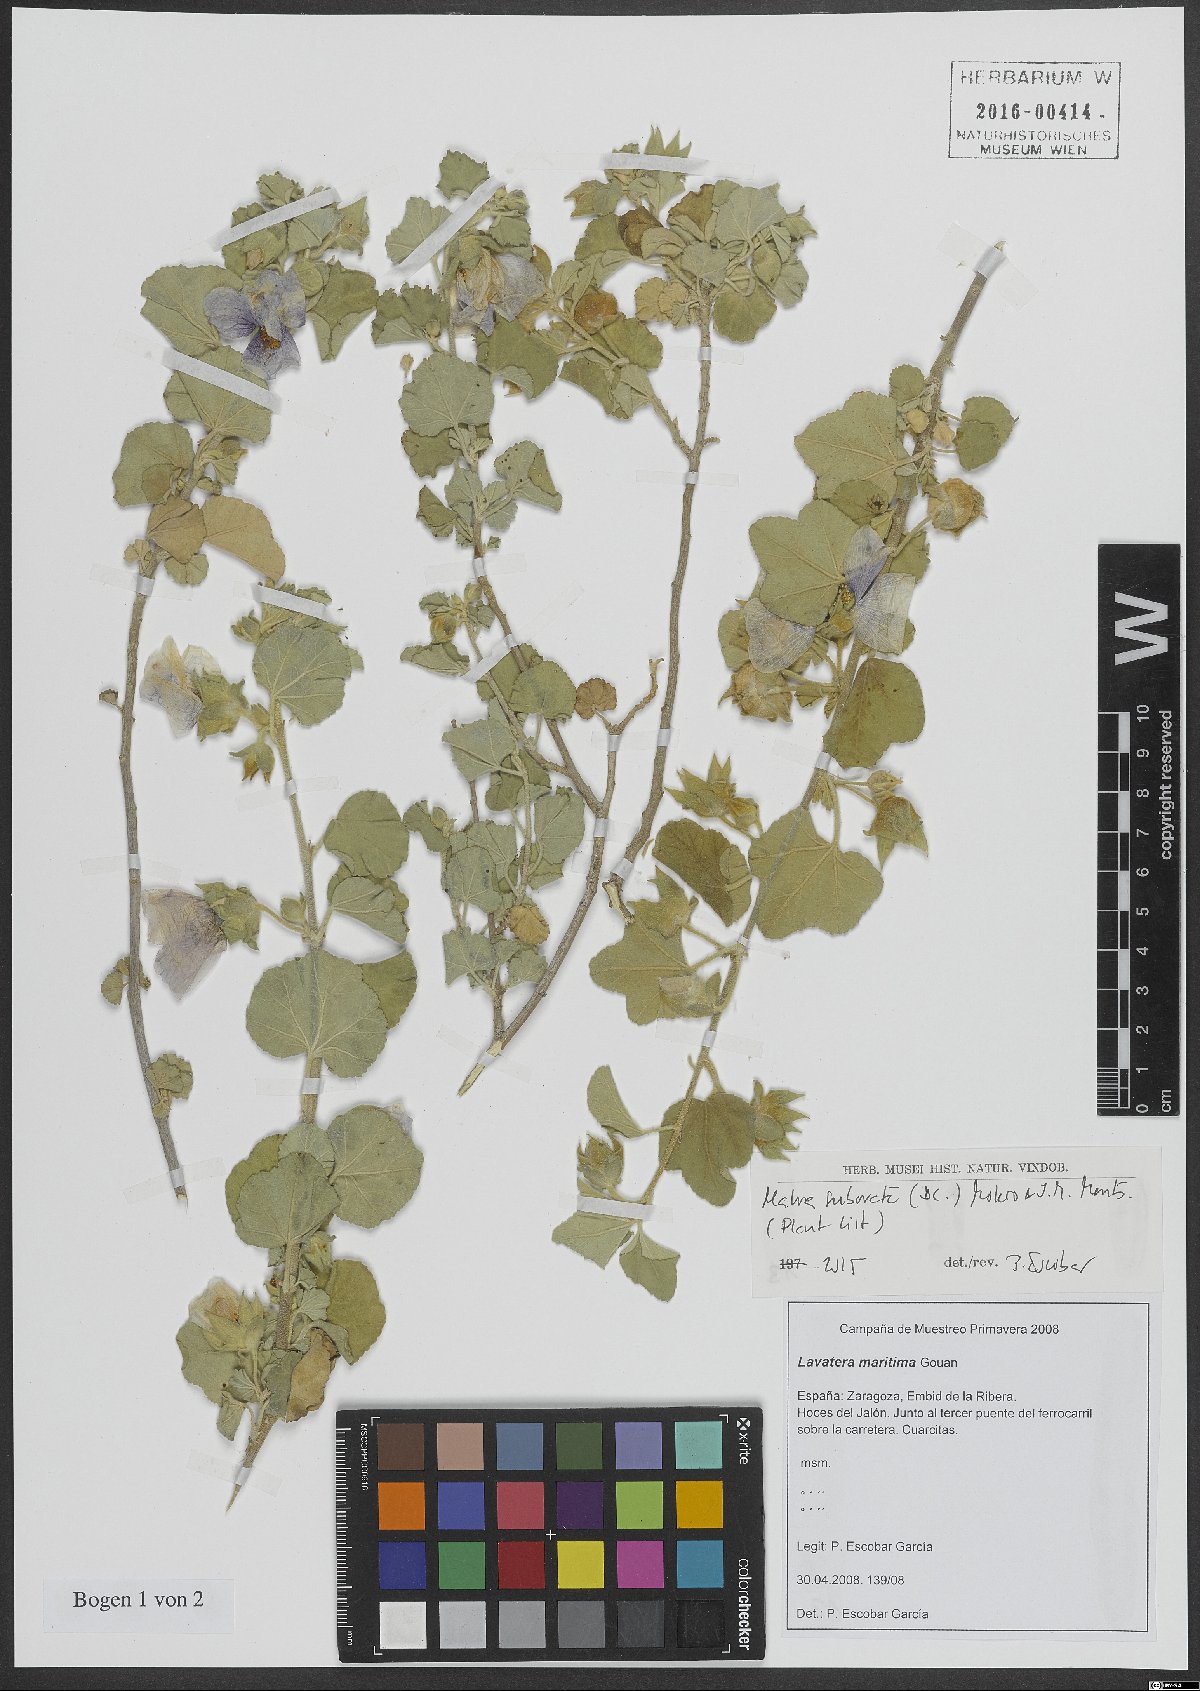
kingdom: Plantae
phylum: Tracheophyta
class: Magnoliopsida
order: Malvales
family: Malvaceae
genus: Malva
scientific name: Malva subovata
